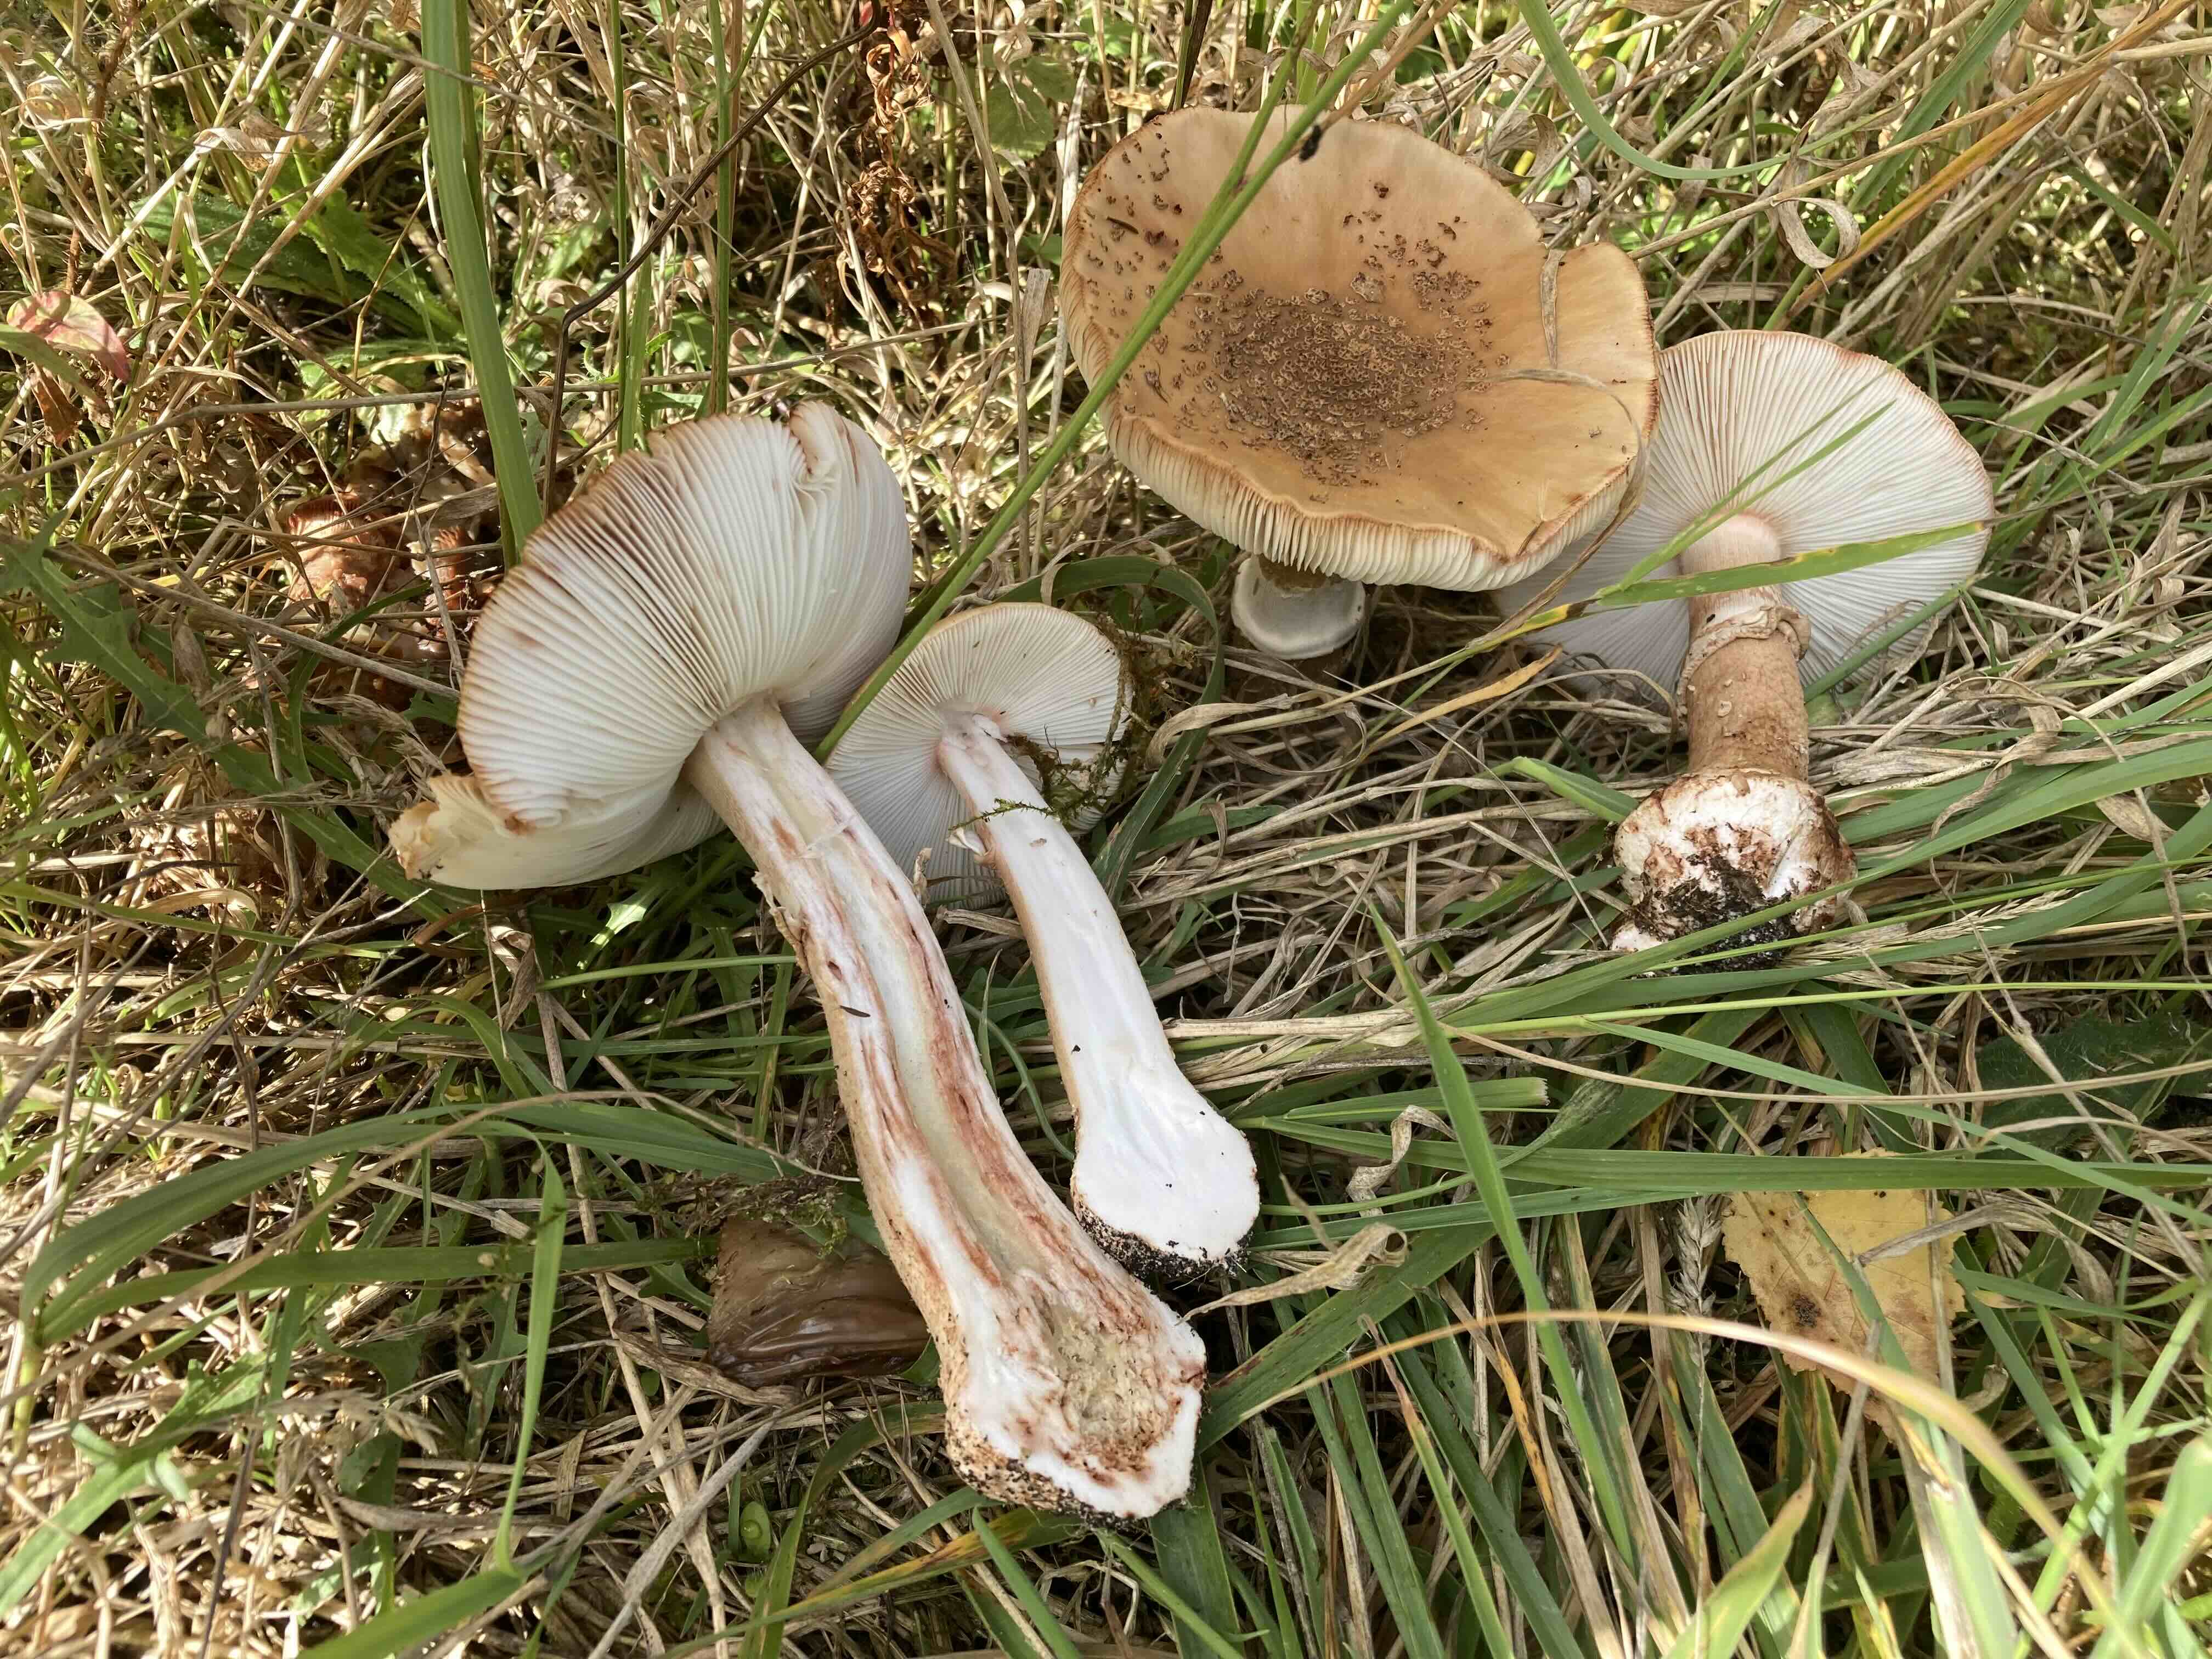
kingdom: Fungi
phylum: Basidiomycota
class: Agaricomycetes
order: Agaricales
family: Amanitaceae
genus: Amanita
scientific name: Amanita rubescens
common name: rødmende fluesvamp
